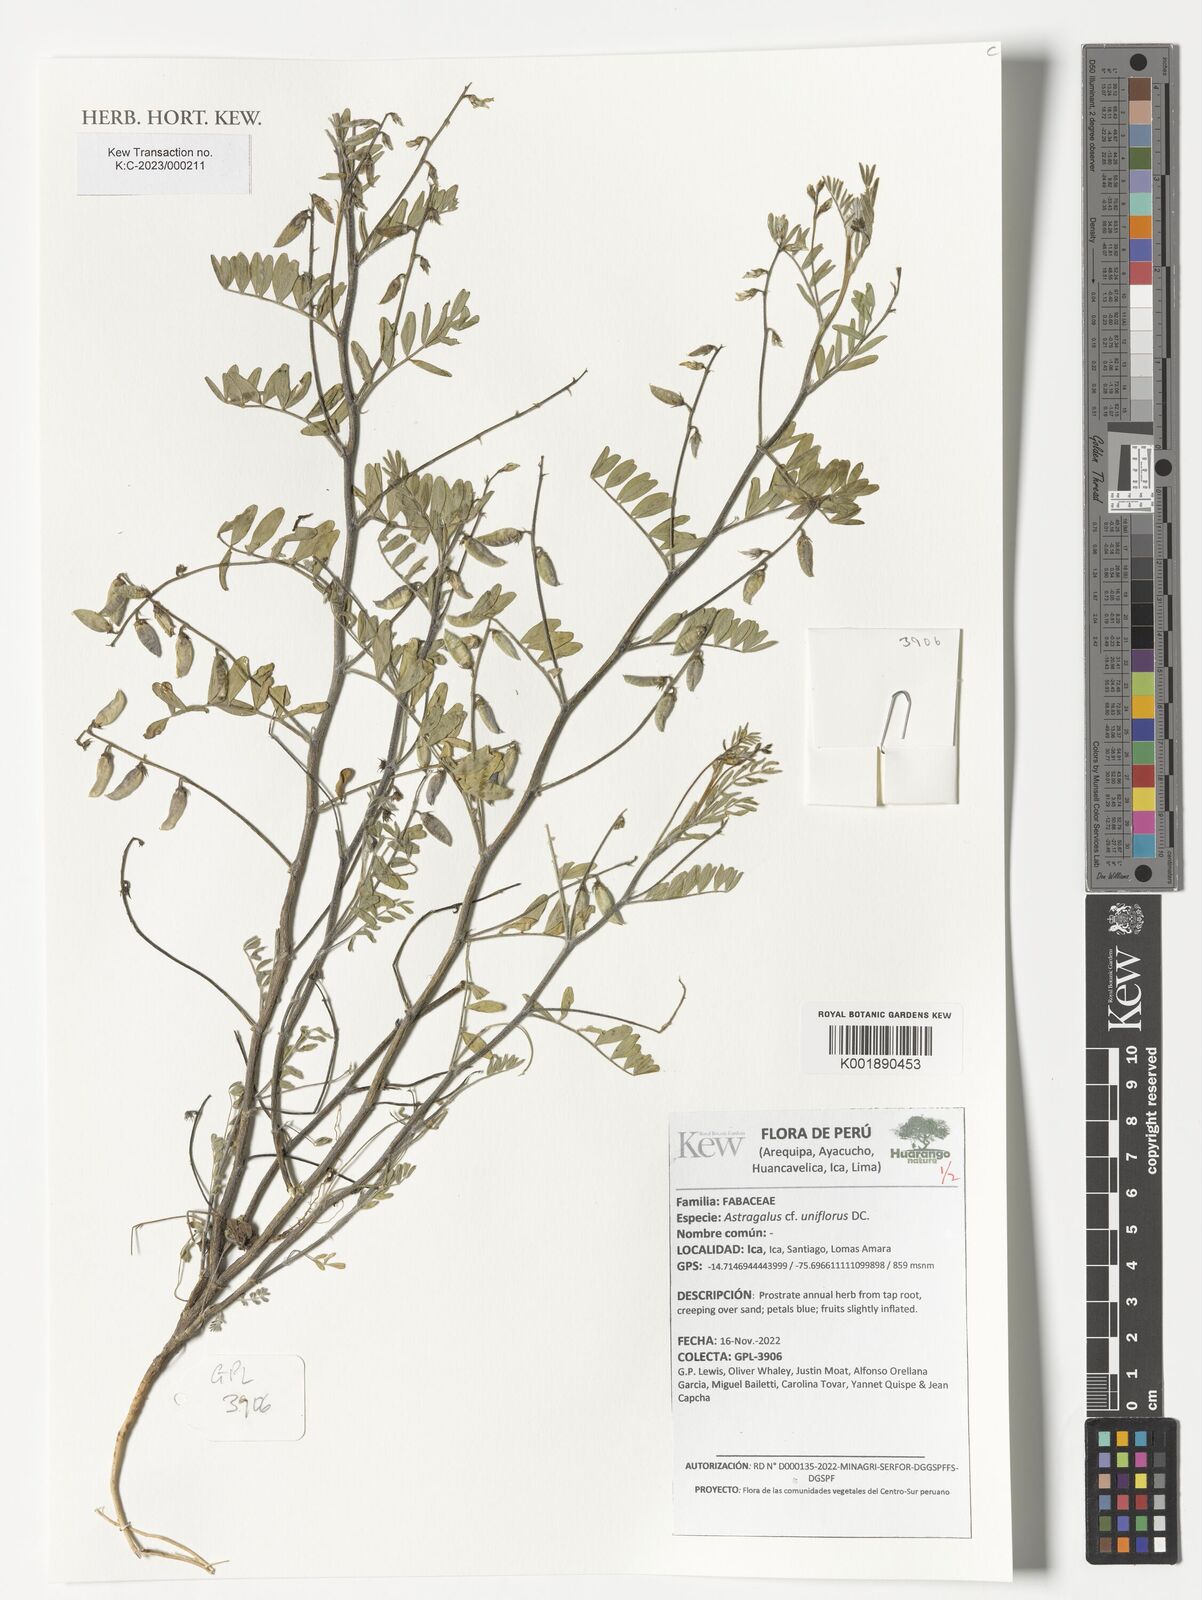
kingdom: Plantae
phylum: Tracheophyta
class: Magnoliopsida
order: Fabales
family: Fabaceae
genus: Astragalus
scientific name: Astragalus uniflorus
